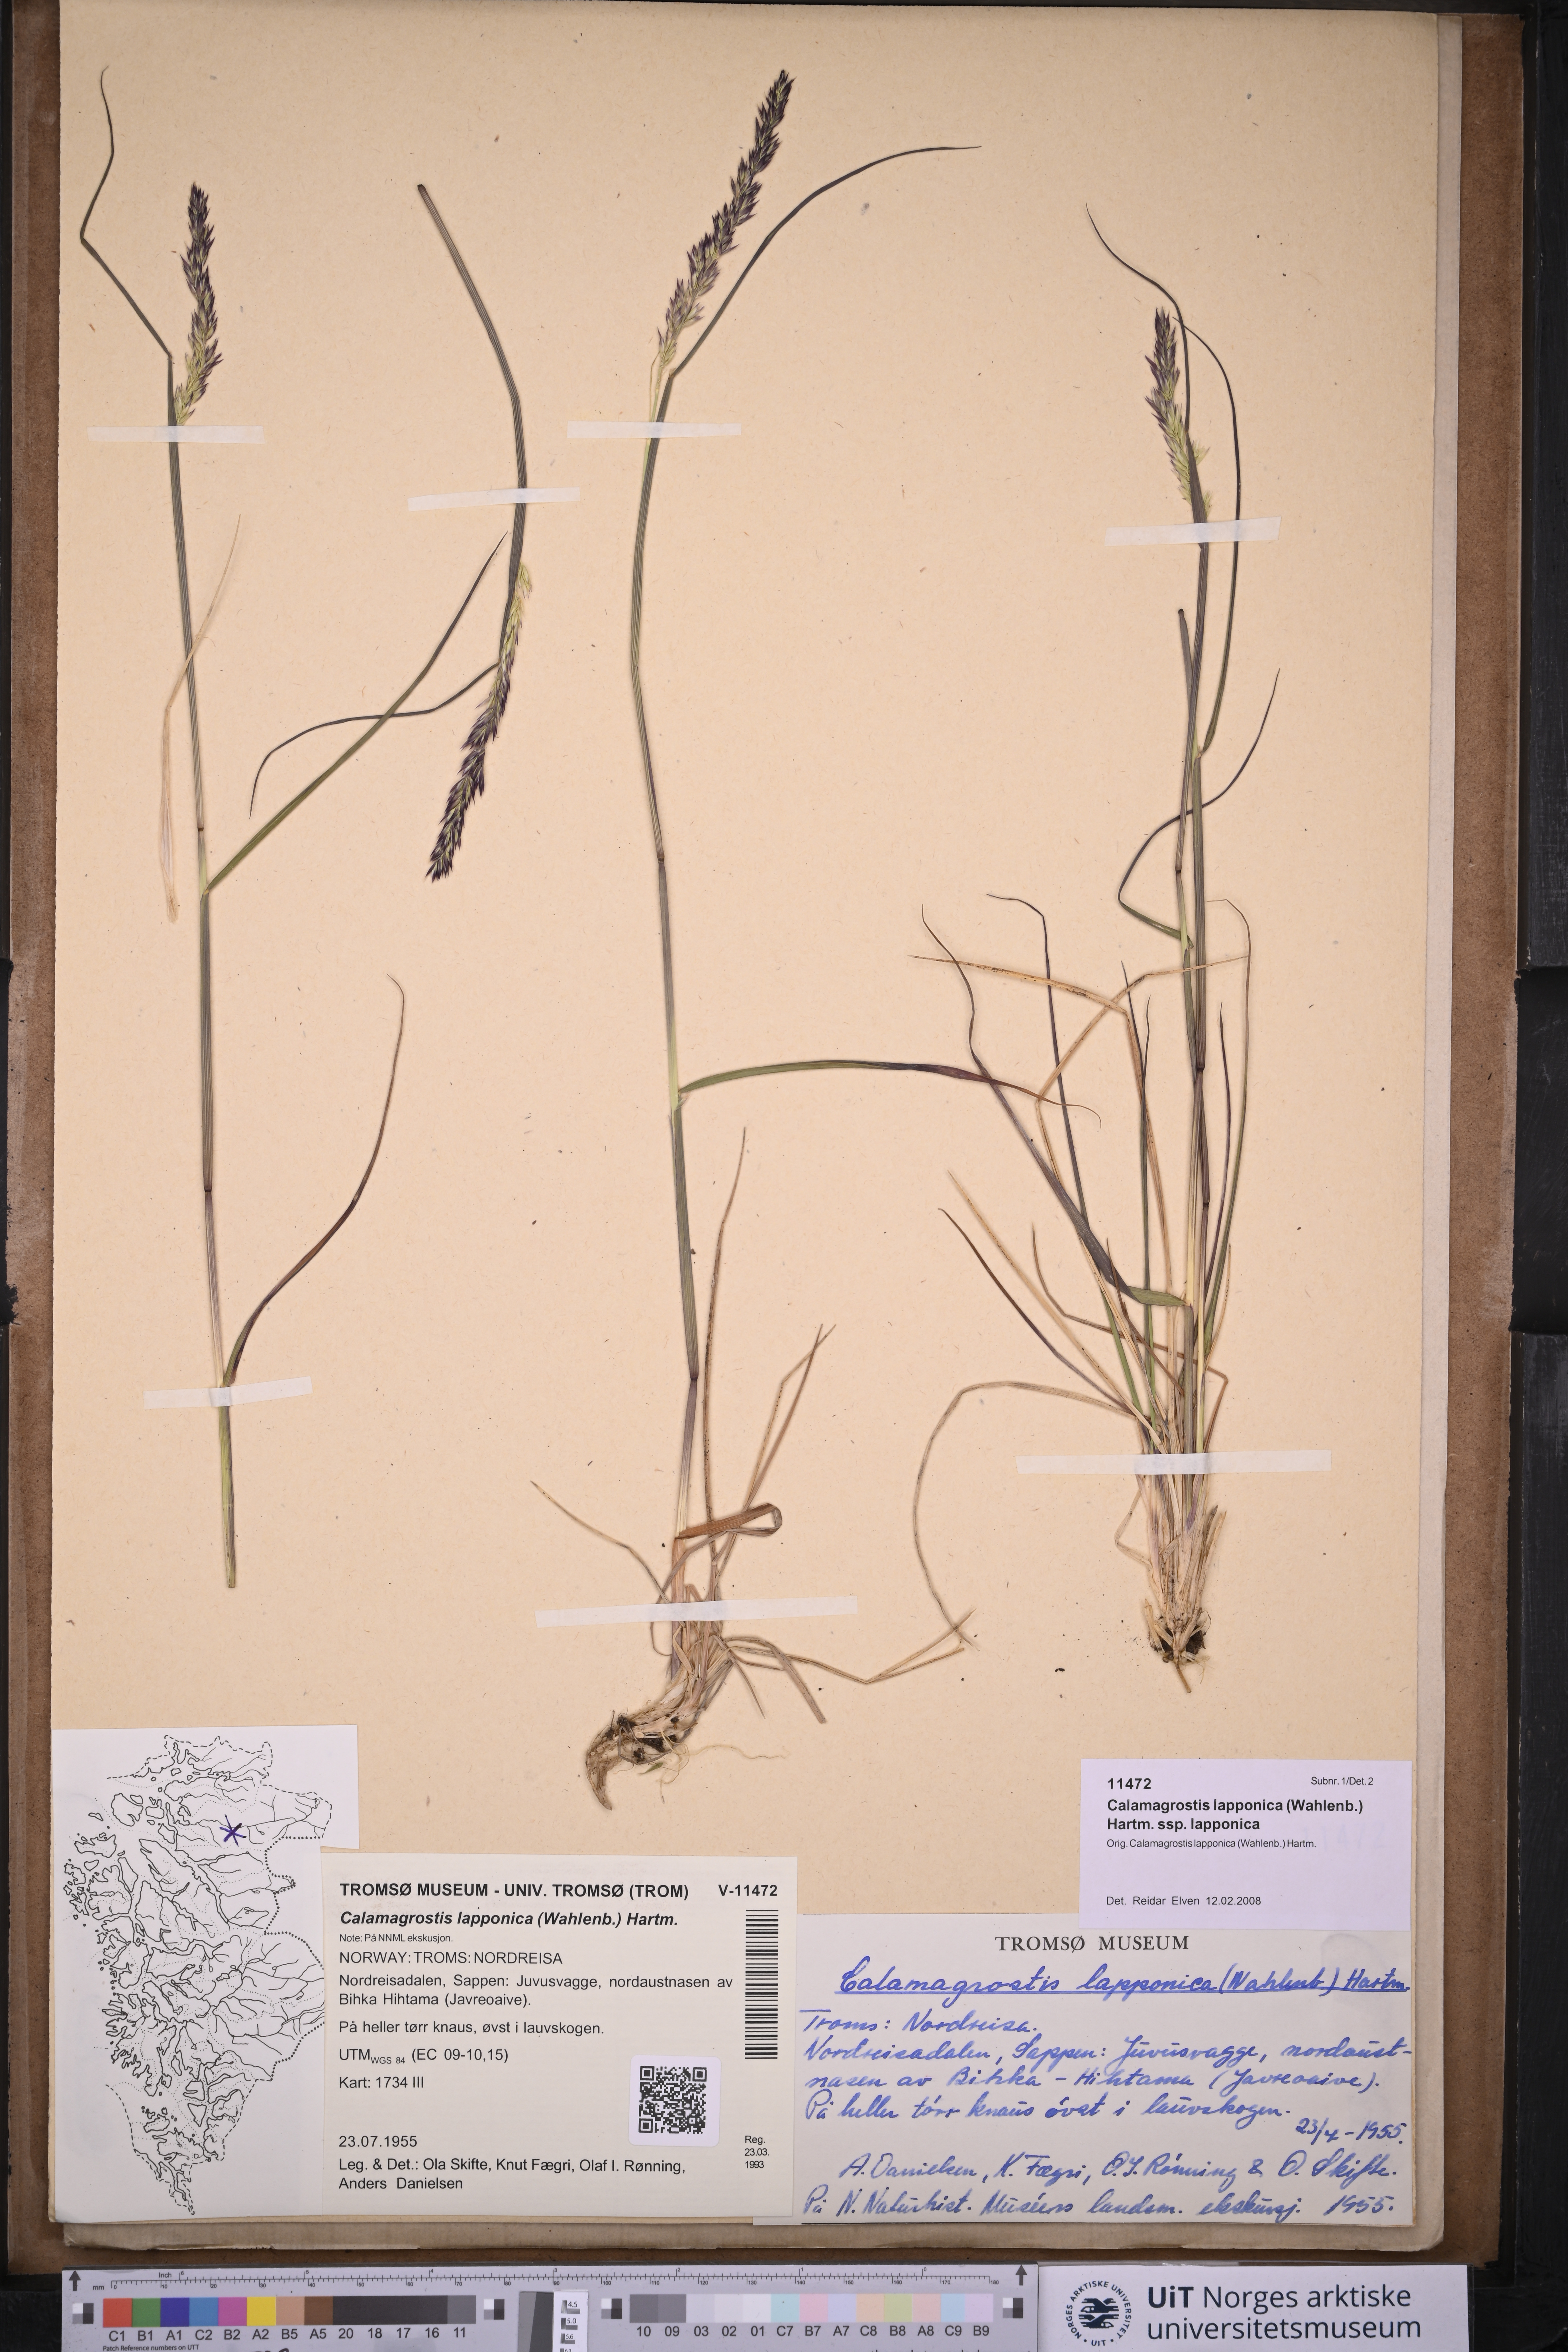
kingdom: Plantae
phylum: Tracheophyta
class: Liliopsida
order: Poales
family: Poaceae
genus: Calamagrostis
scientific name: Calamagrostis lapponica
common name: Lapland reedgrass
